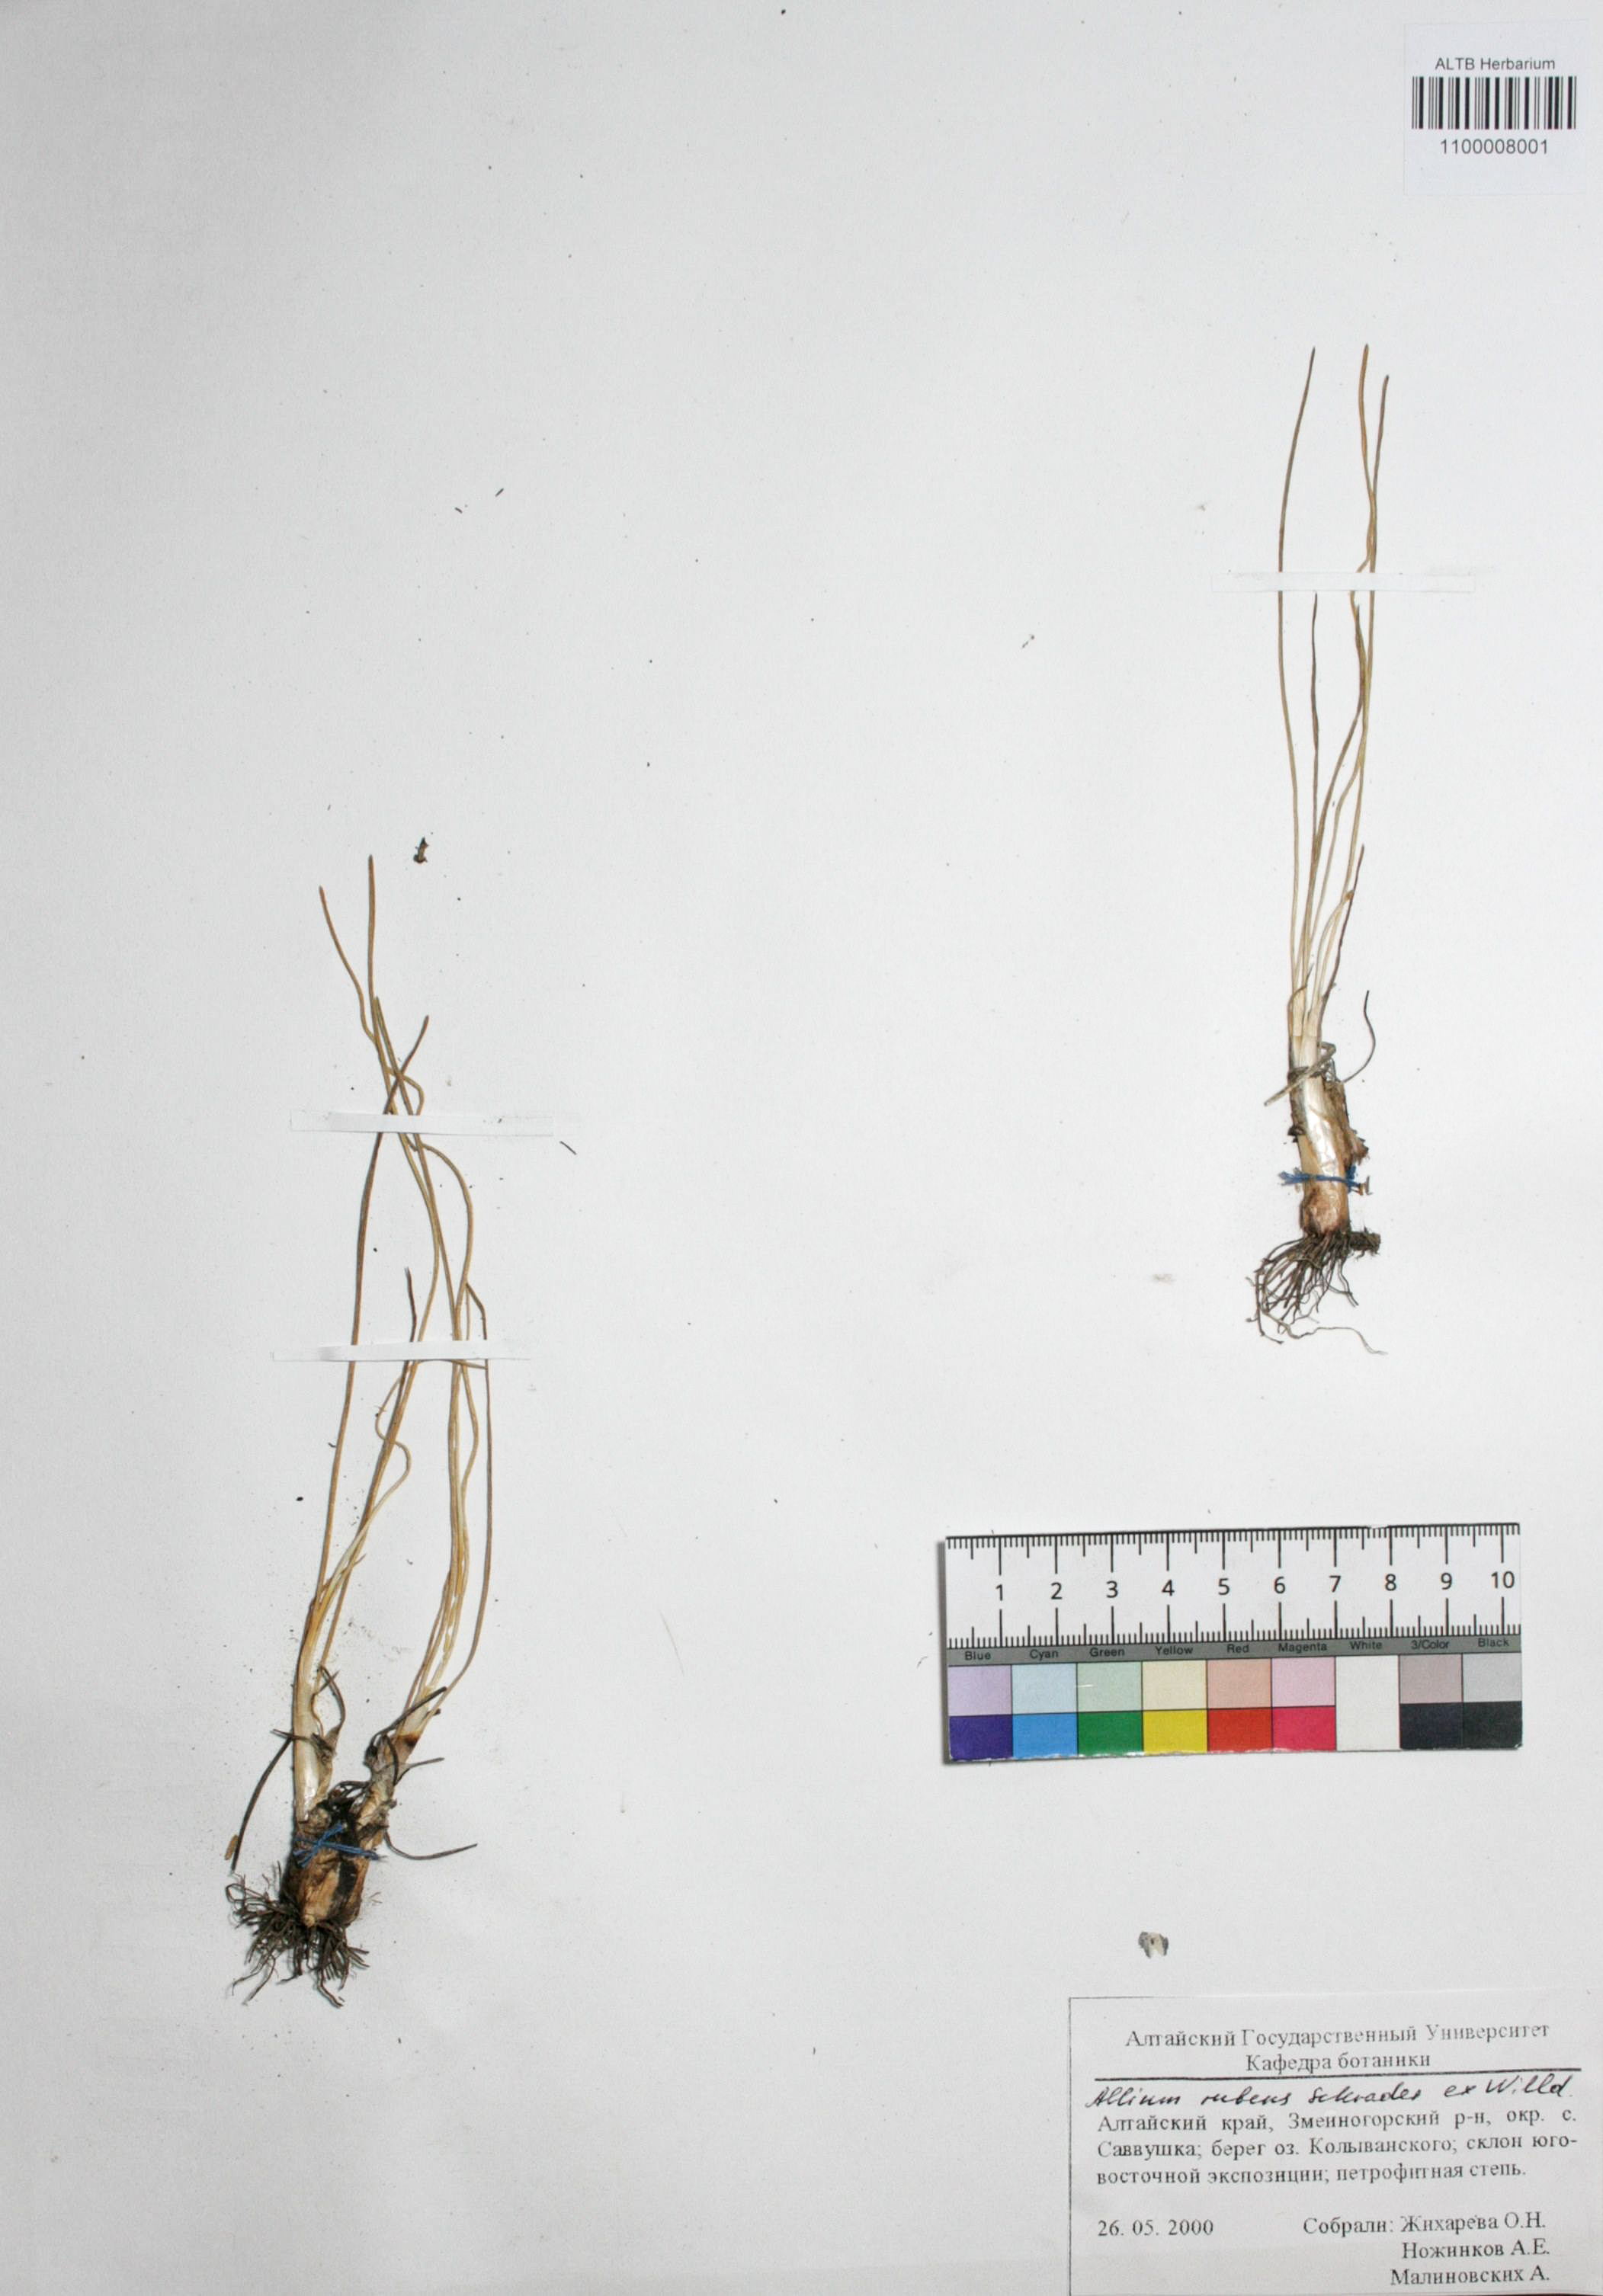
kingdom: Plantae
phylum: Tracheophyta
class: Liliopsida
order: Asparagales
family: Amaryllidaceae
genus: Allium
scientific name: Allium rubens
